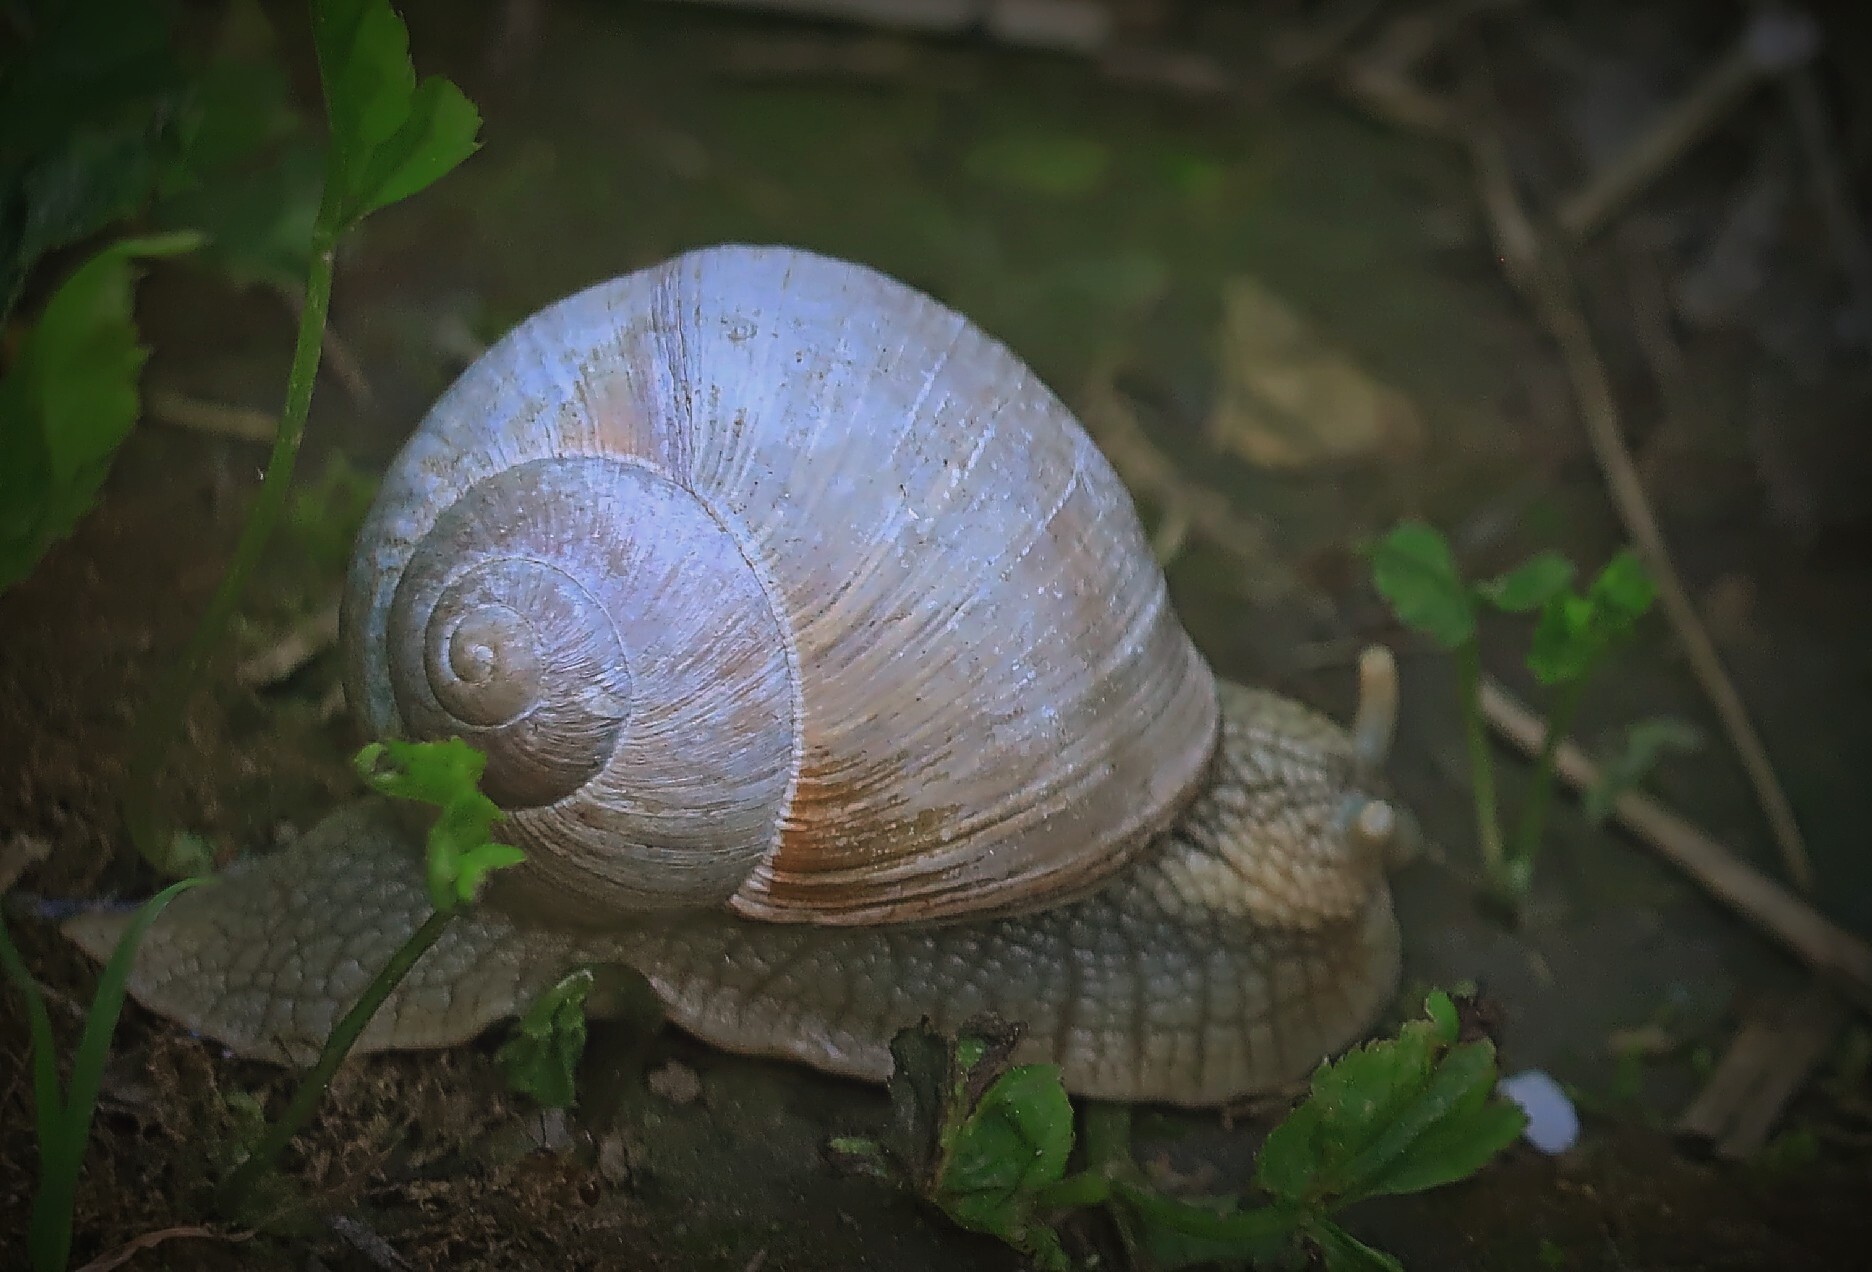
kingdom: Animalia
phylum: Mollusca
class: Gastropoda
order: Stylommatophora
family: Helicidae
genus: Helix
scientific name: Helix pomatia
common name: Roman snail
